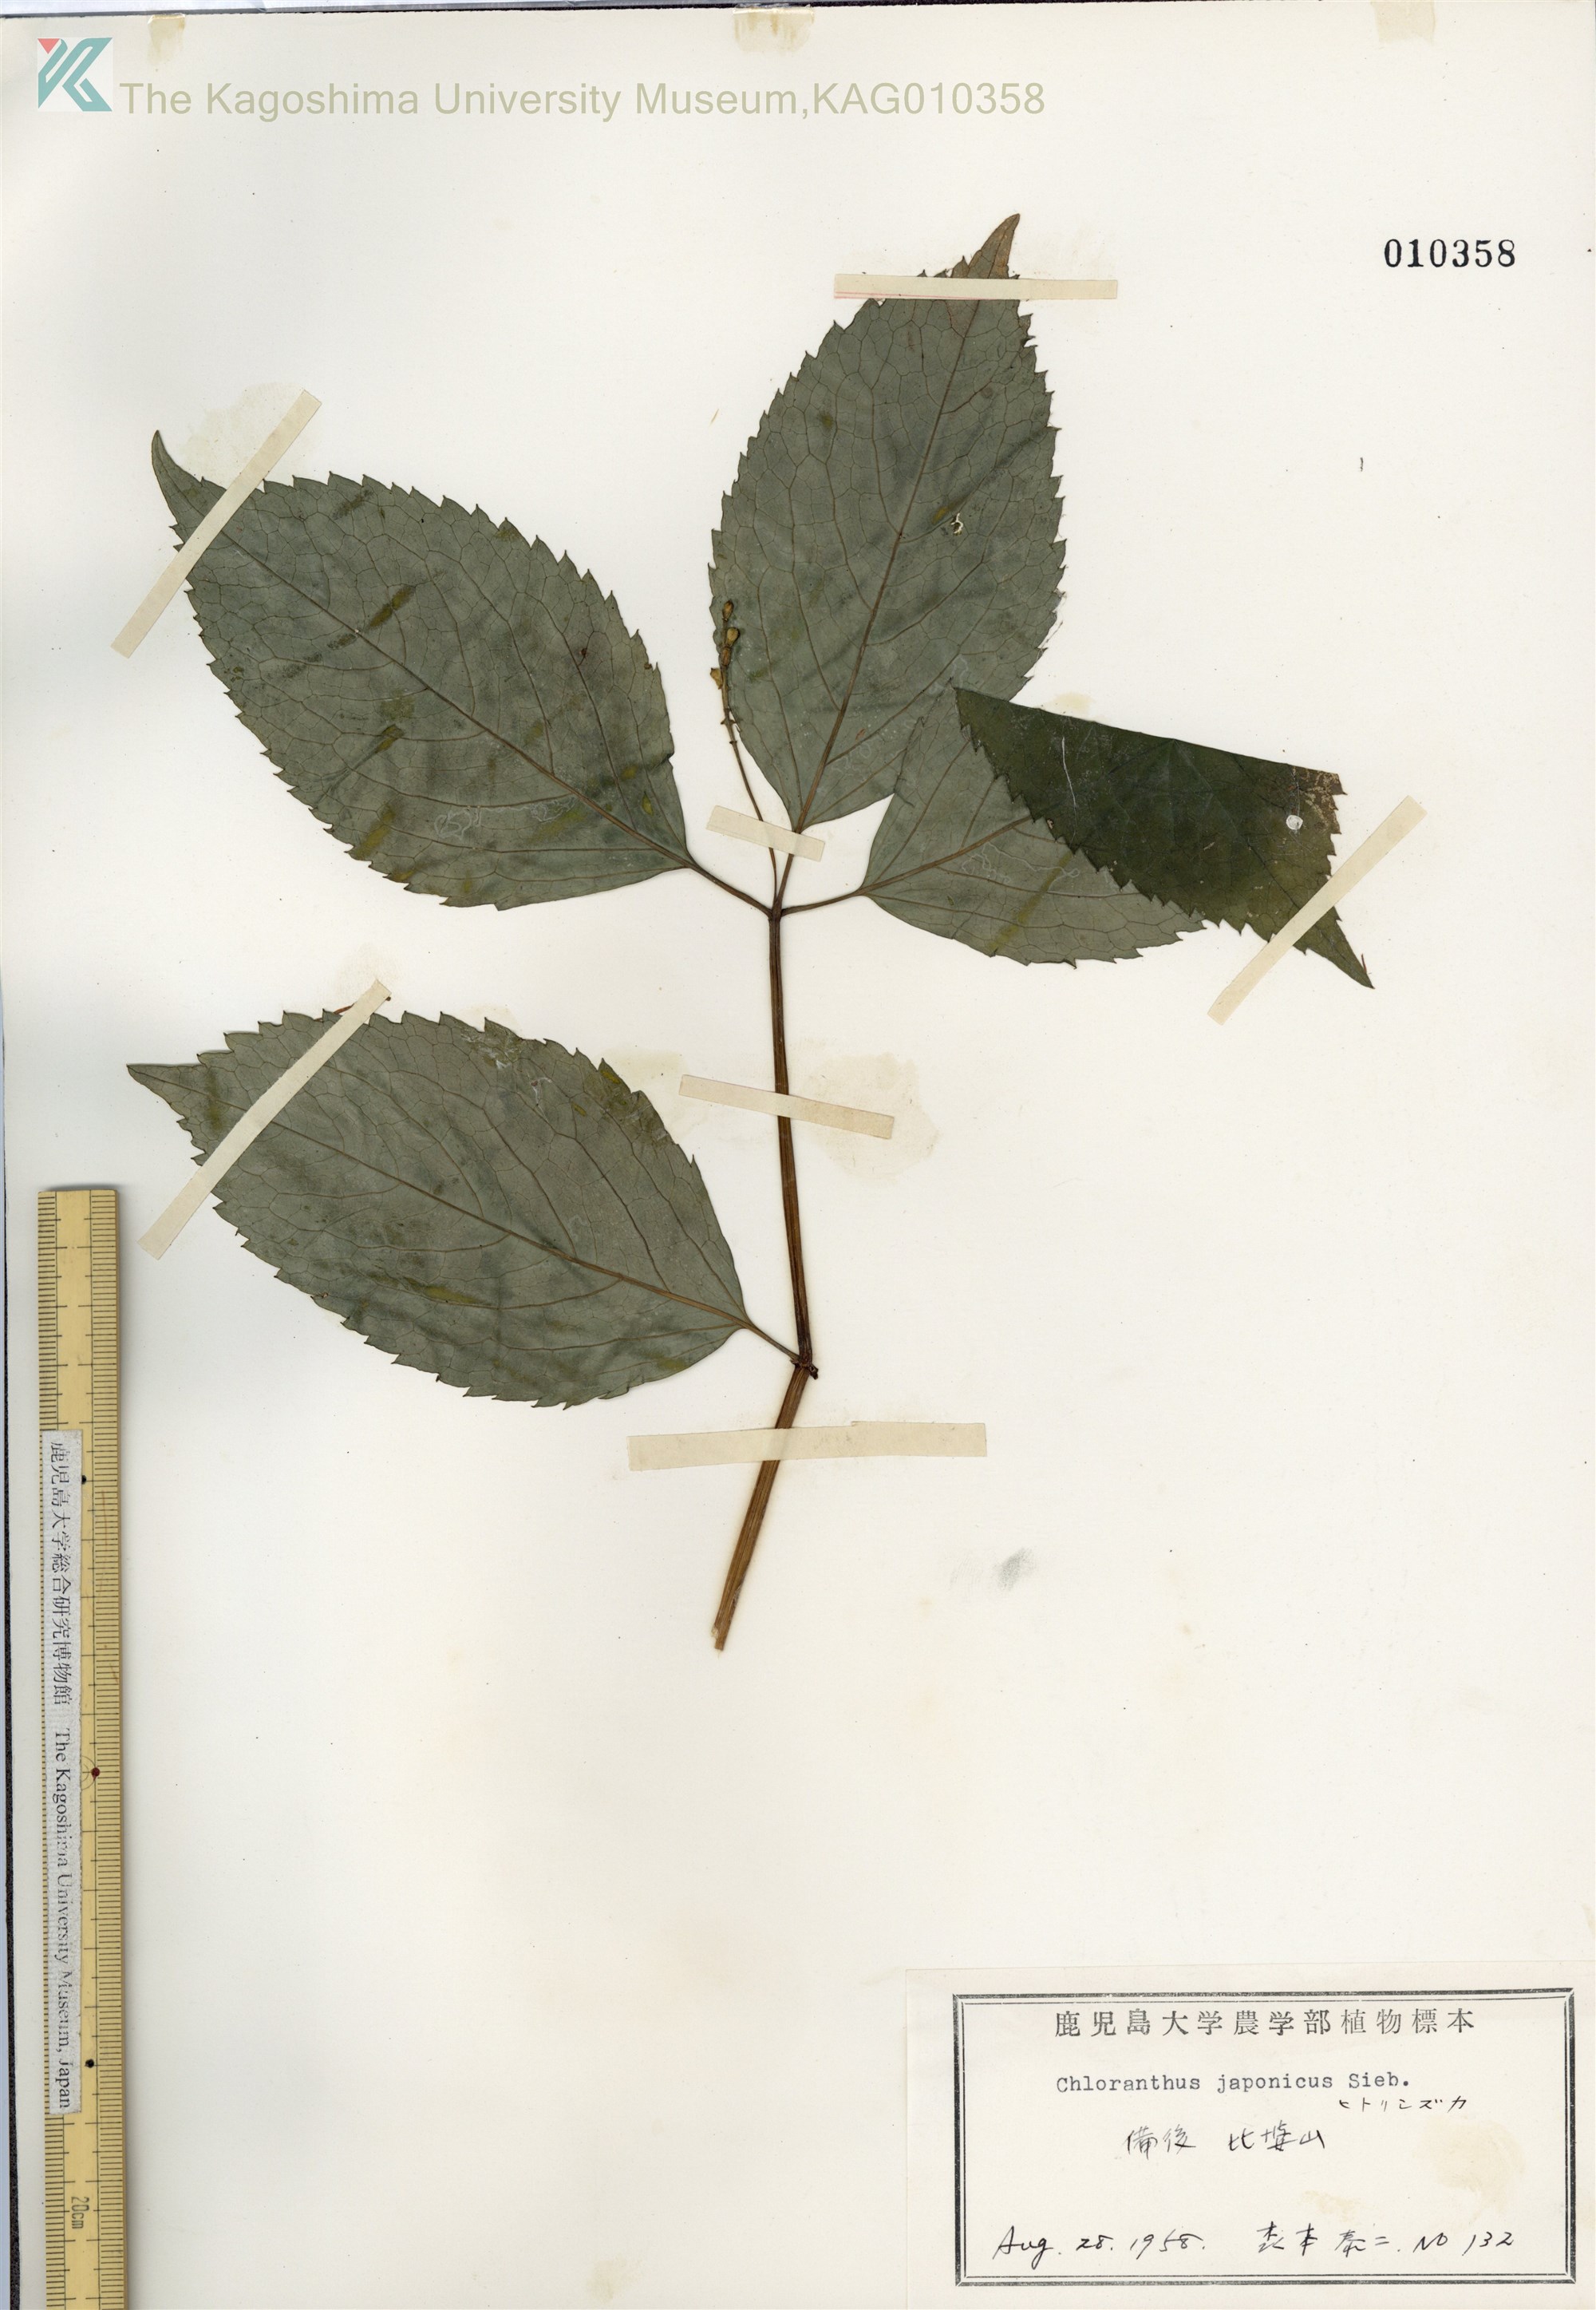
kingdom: Plantae
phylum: Tracheophyta
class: Magnoliopsida
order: Chloranthales
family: Chloranthaceae
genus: Chloranthus
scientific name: Chloranthus japonicus
